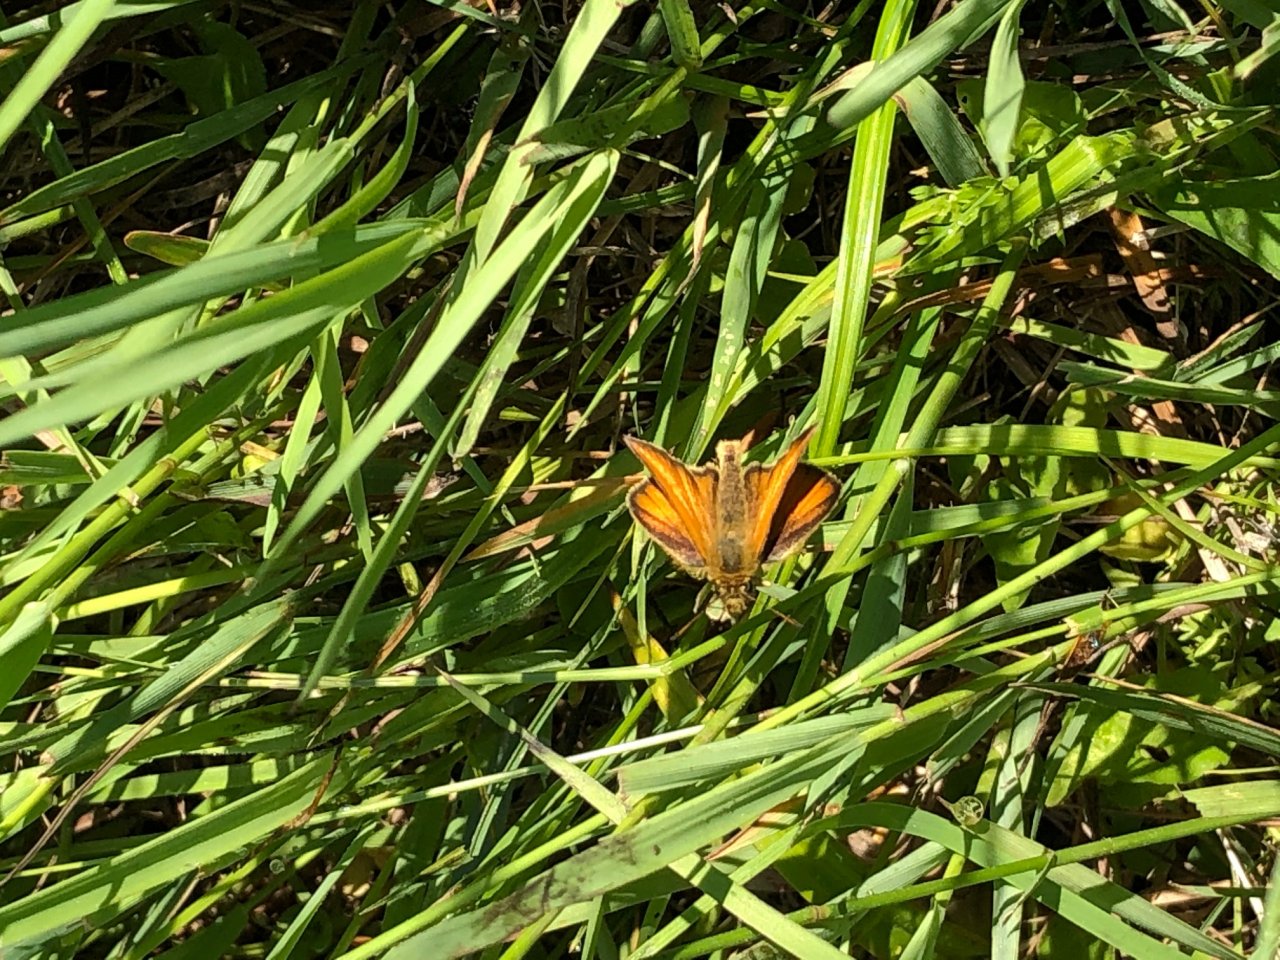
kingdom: Animalia
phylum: Arthropoda
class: Insecta
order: Lepidoptera
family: Hesperiidae
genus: Thymelicus
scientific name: Thymelicus lineola
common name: European Skipper
